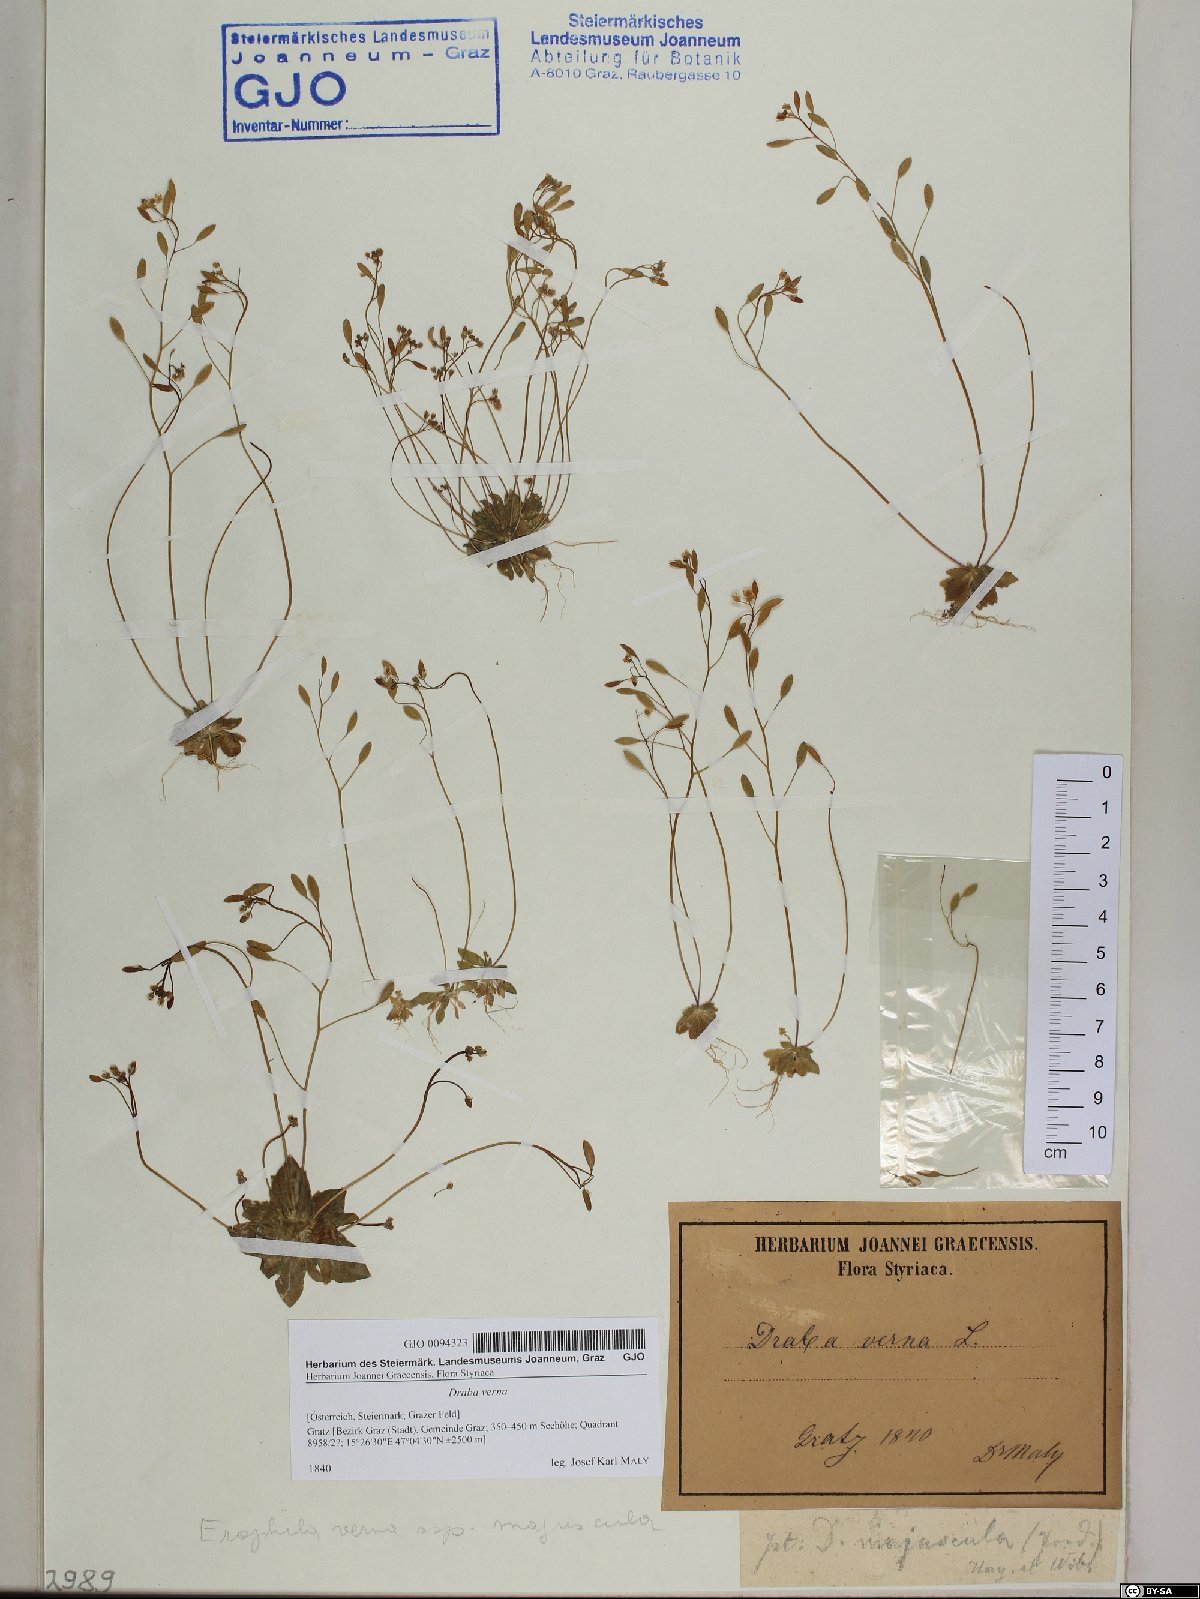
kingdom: Plantae
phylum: Tracheophyta
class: Magnoliopsida
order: Brassicales
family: Brassicaceae
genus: Draba
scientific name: Draba verna
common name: Spring draba
